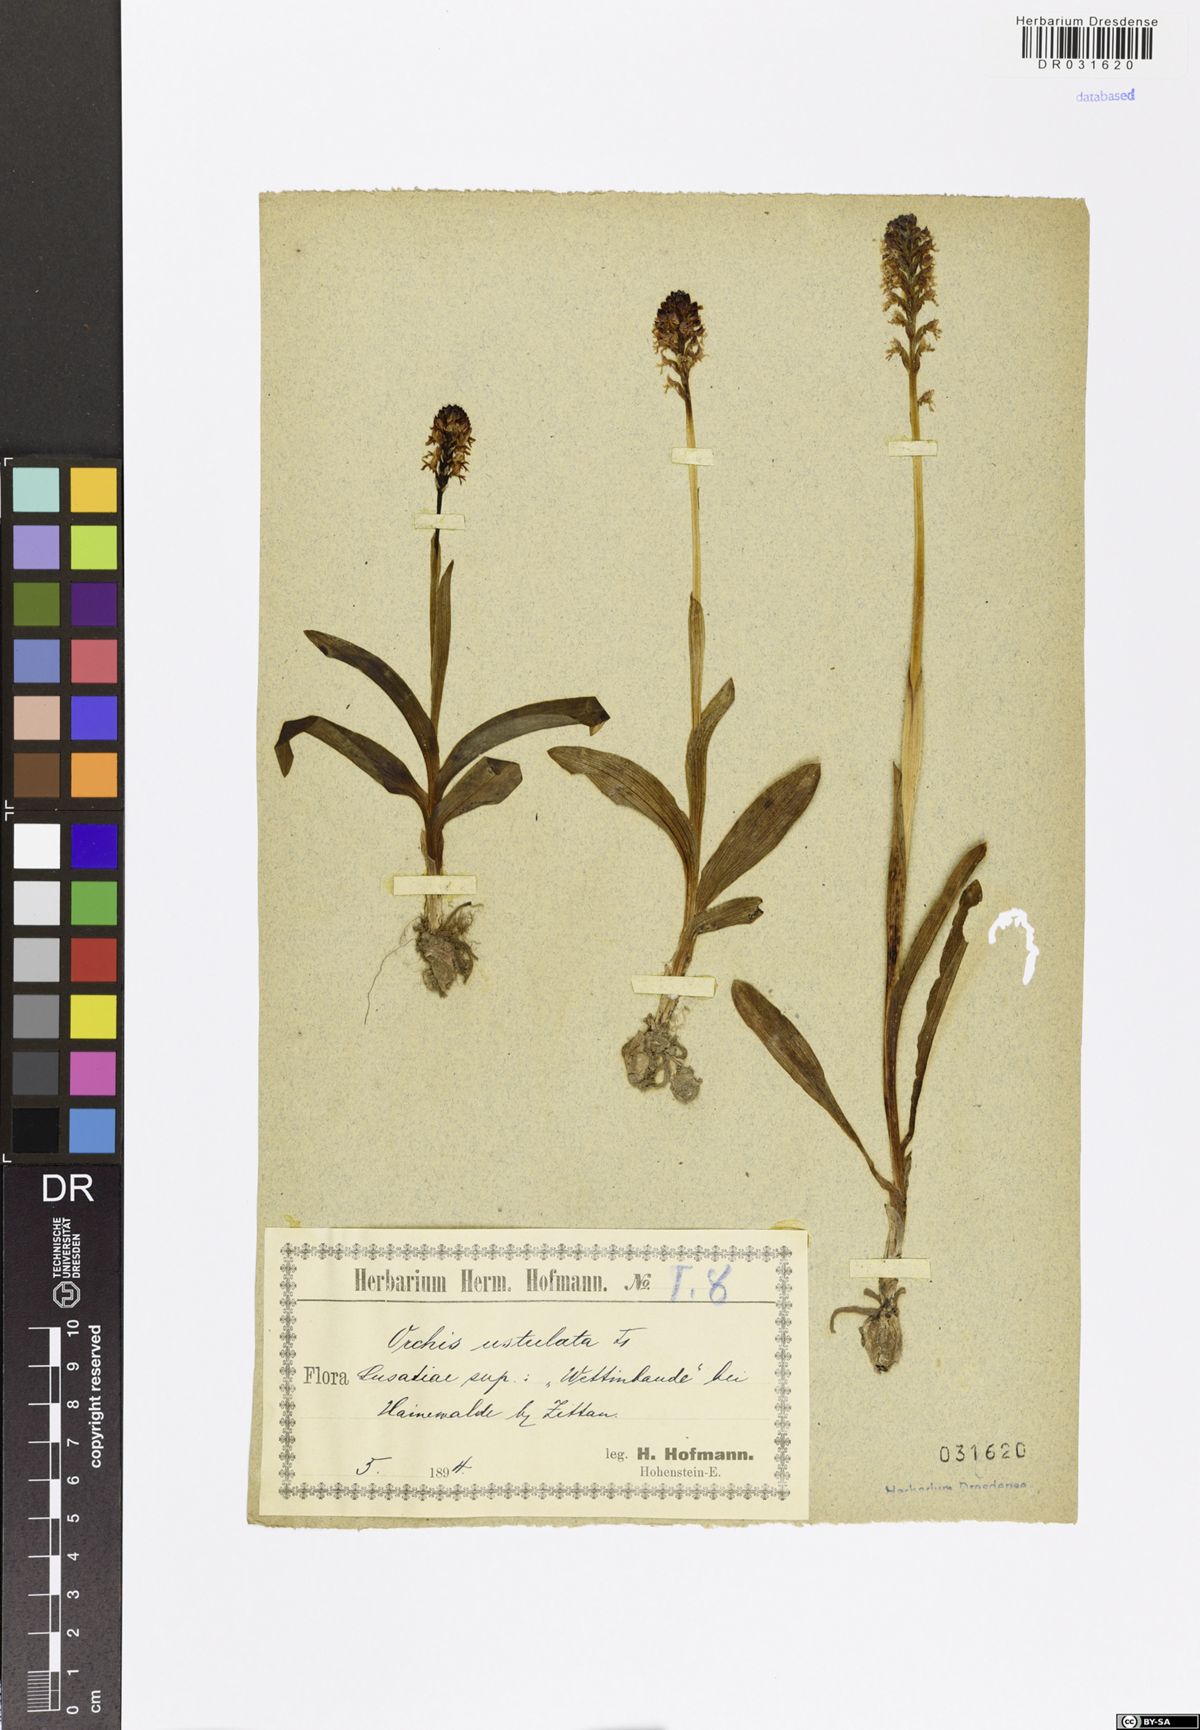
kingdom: Plantae
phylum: Tracheophyta
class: Liliopsida
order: Asparagales
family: Orchidaceae
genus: Neotinea
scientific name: Neotinea ustulata
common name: Burnt orchid
